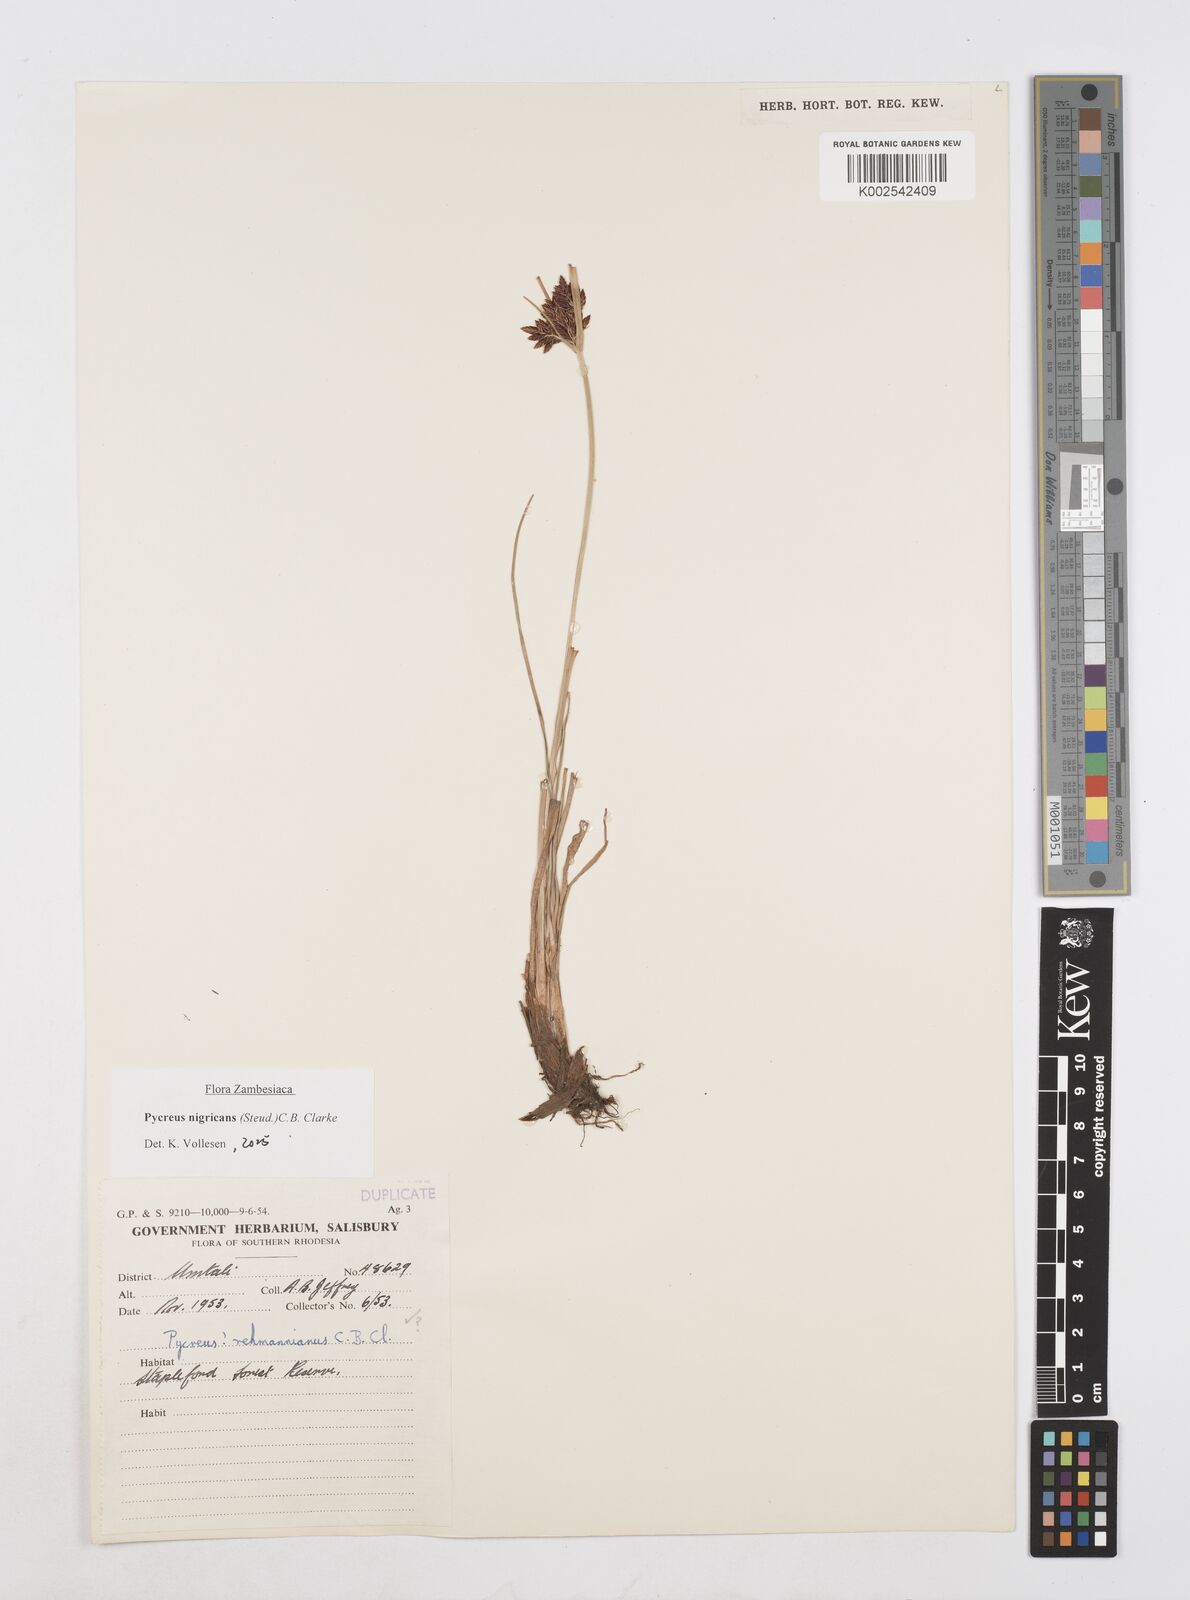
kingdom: Plantae
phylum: Tracheophyta
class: Liliopsida
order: Poales
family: Cyperaceae
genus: Cyperus
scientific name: Cyperus nigricans
